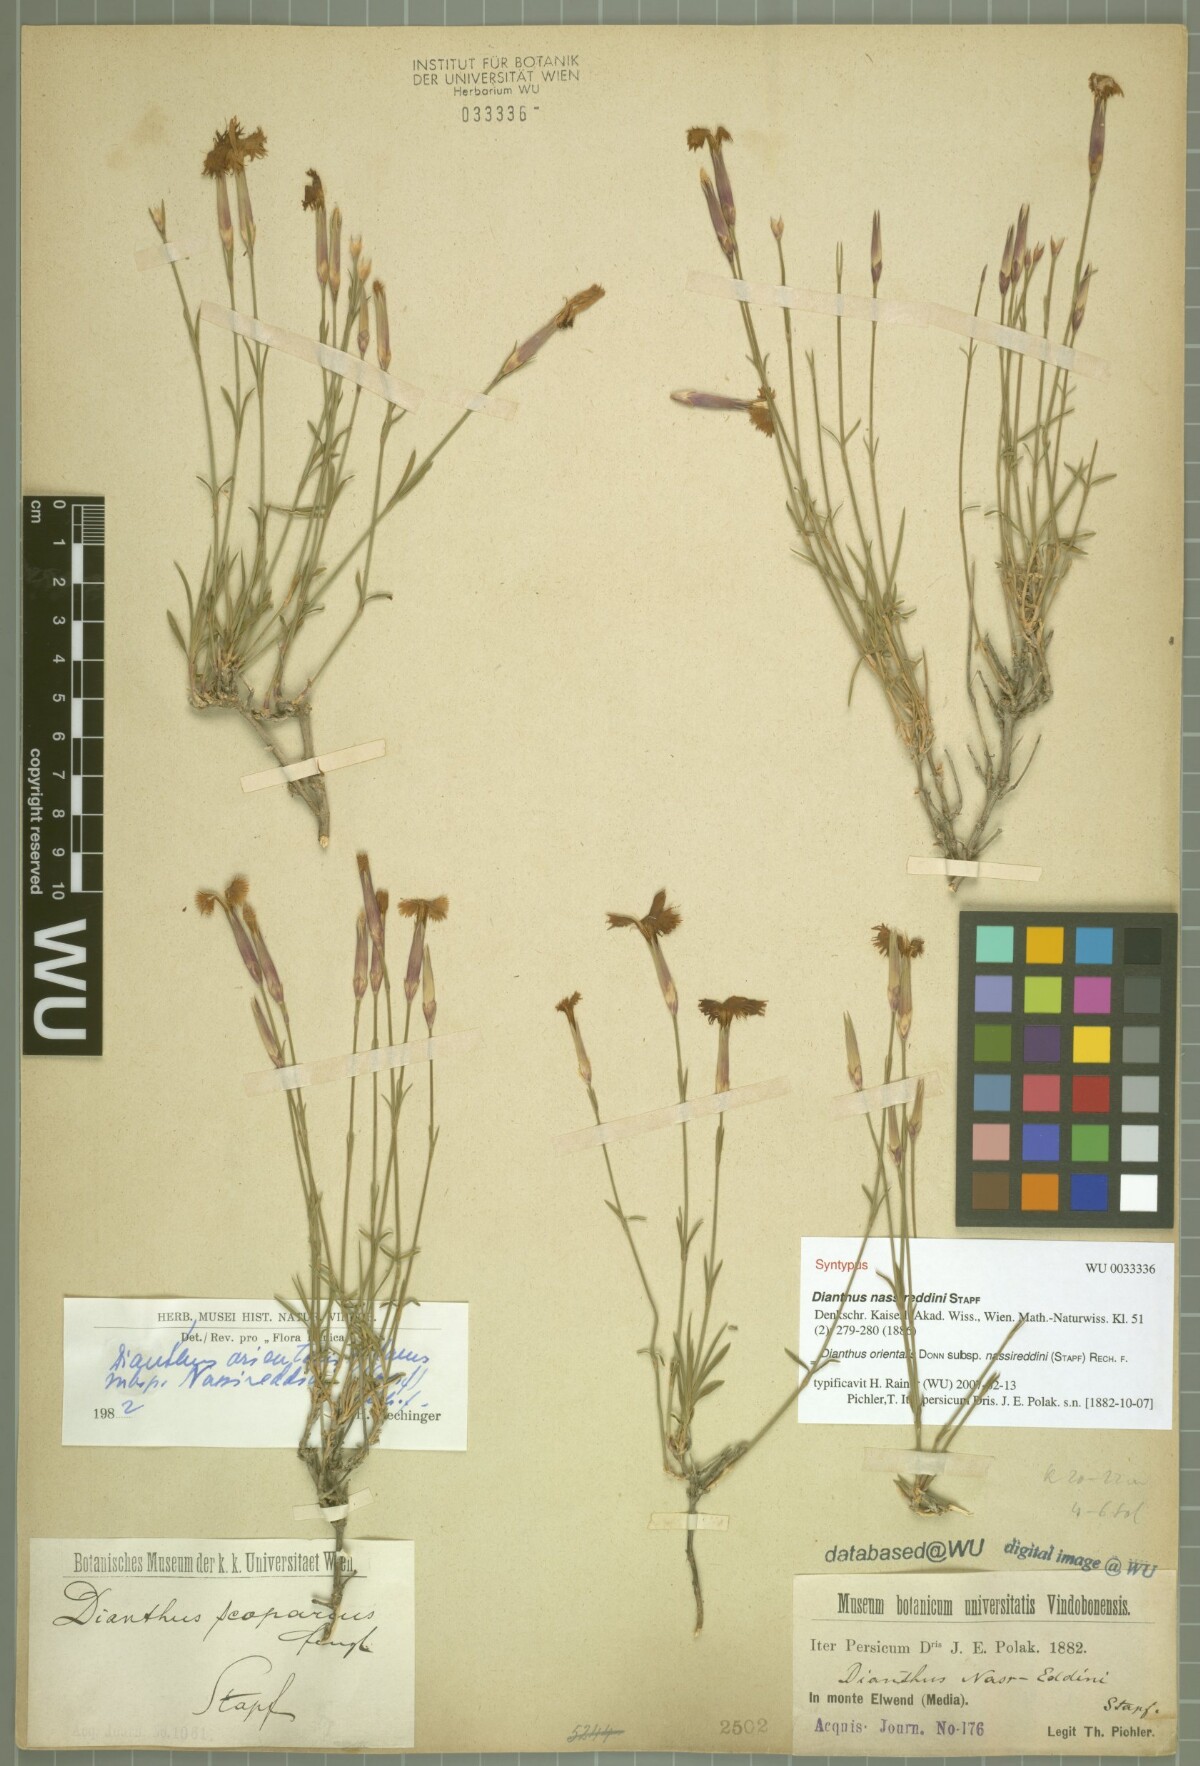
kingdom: Plantae
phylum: Tracheophyta
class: Magnoliopsida
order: Caryophyllales
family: Caryophyllaceae
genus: Dianthus
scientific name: Dianthus orientalis
